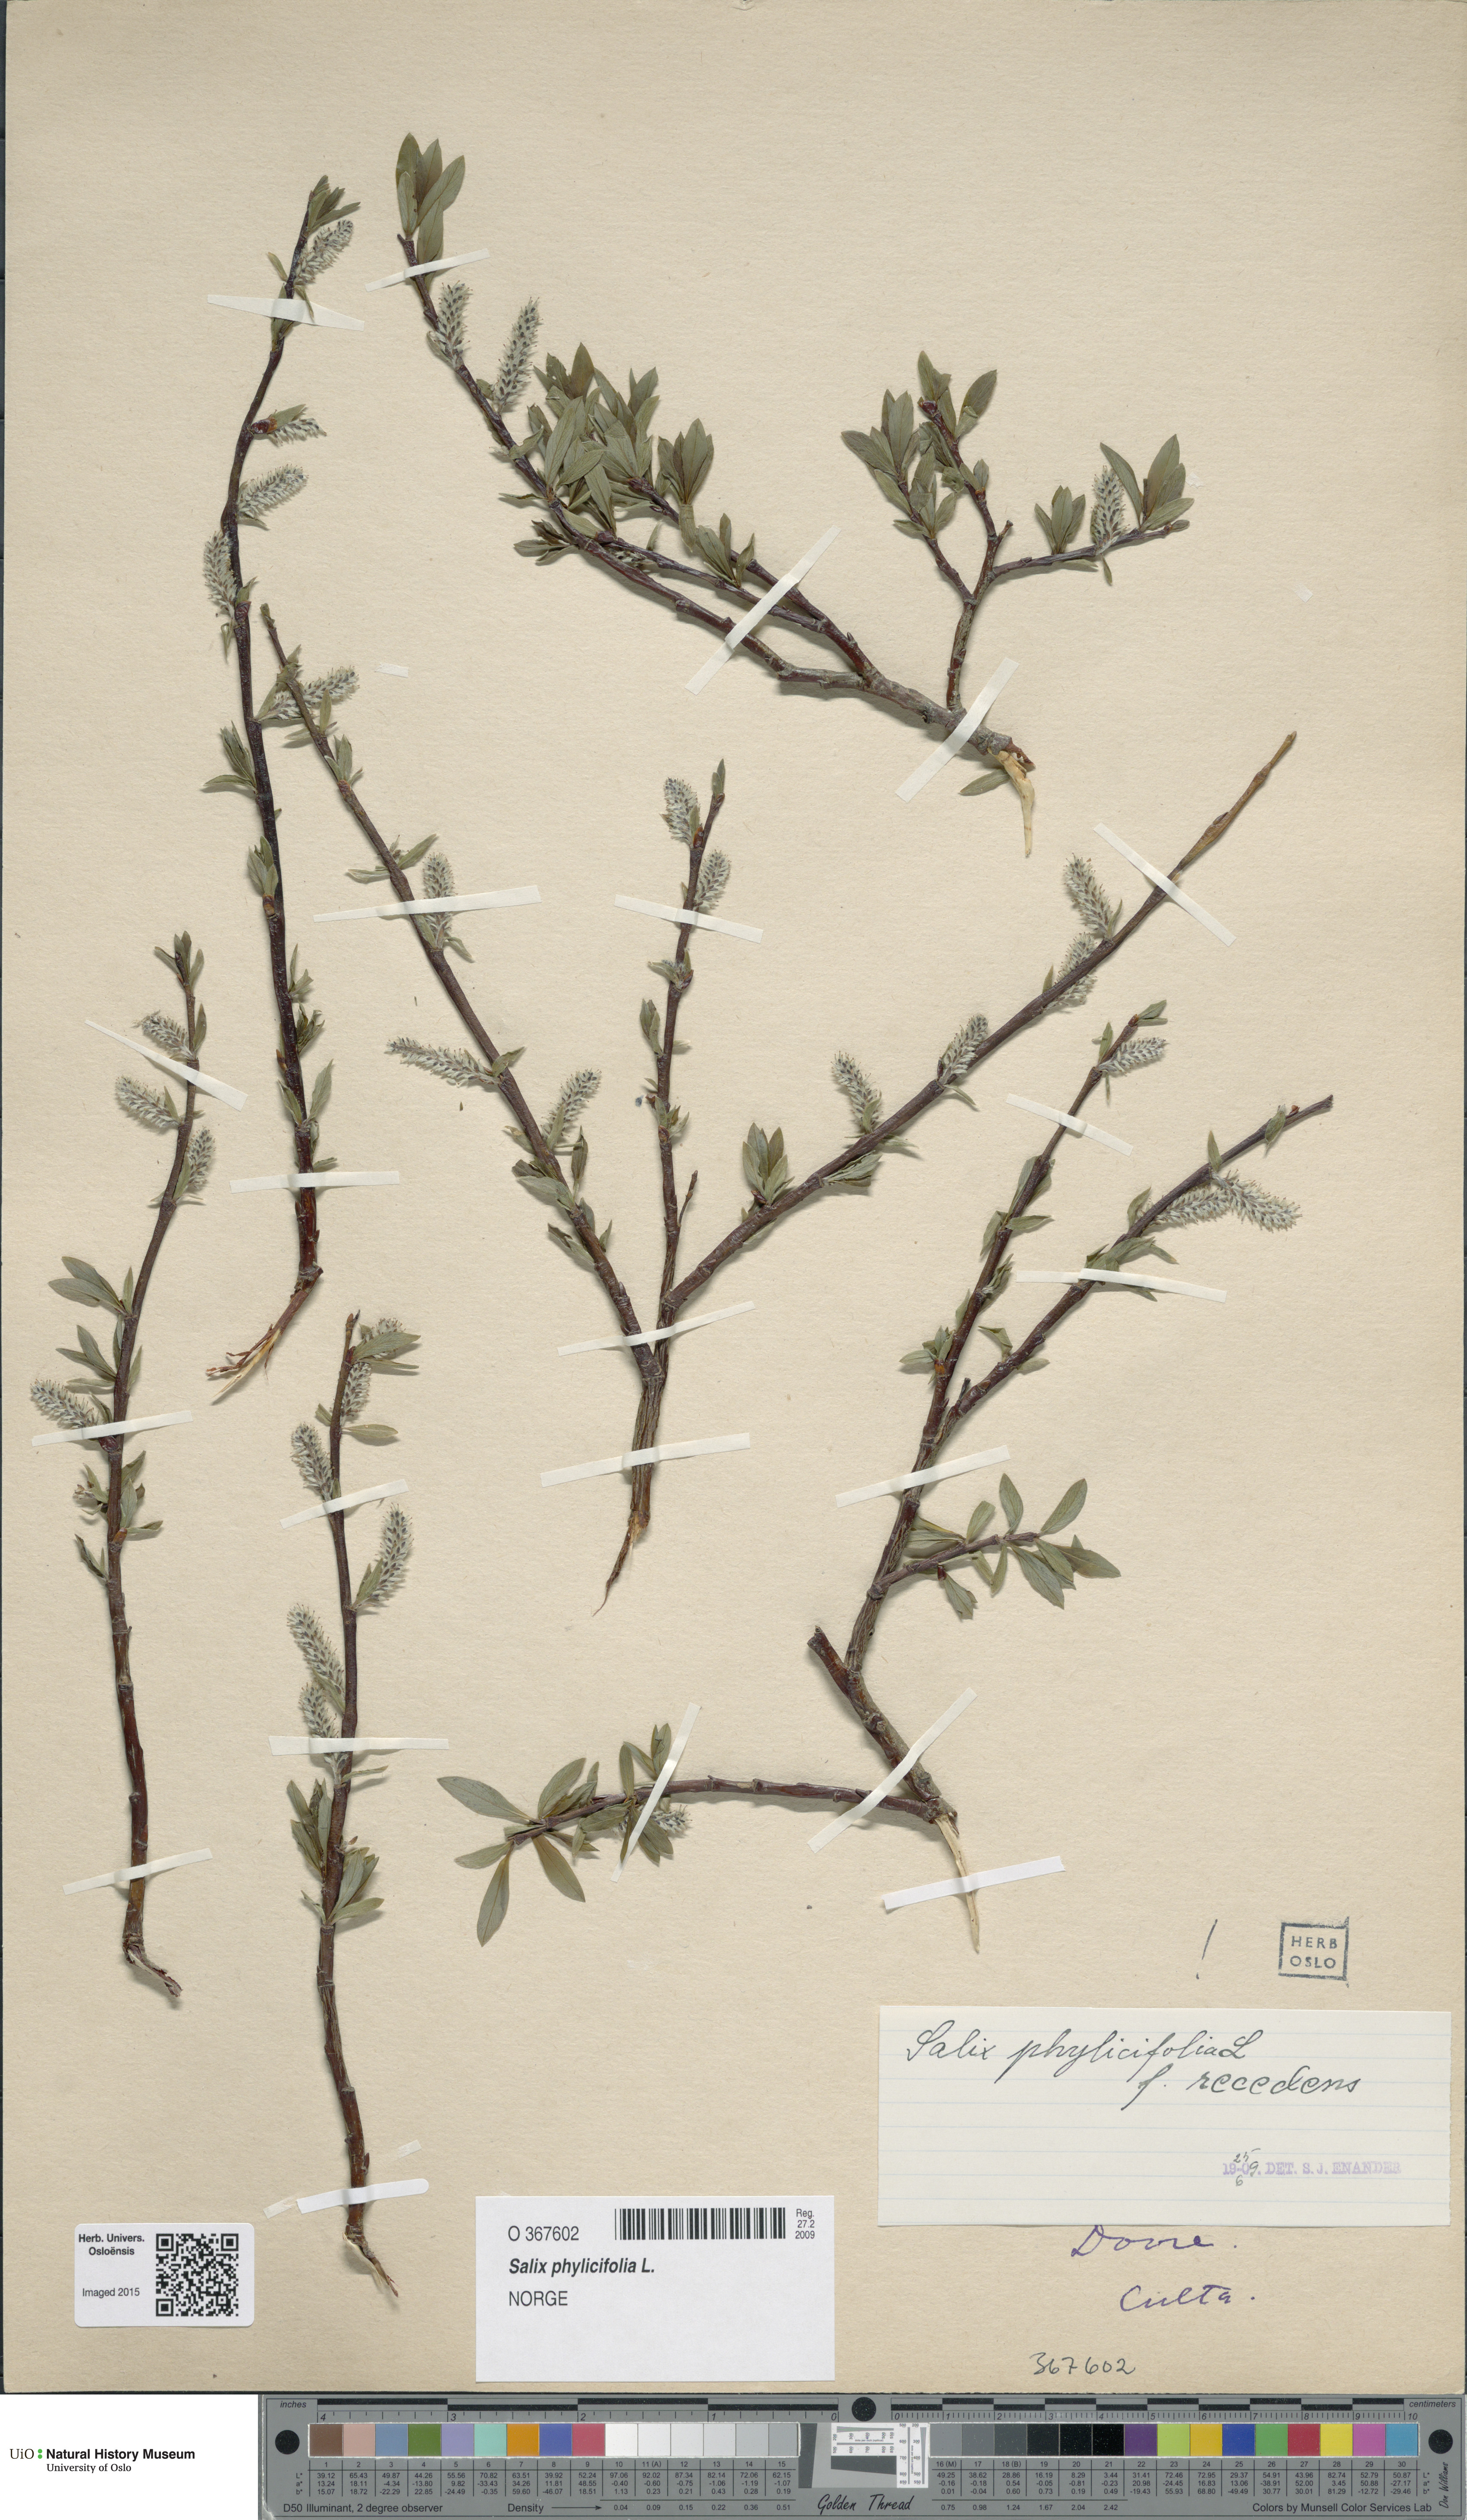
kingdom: Plantae
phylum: Tracheophyta
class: Magnoliopsida
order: Malpighiales
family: Salicaceae
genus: Salix
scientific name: Salix phylicifolia
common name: Tea-leaved willow
